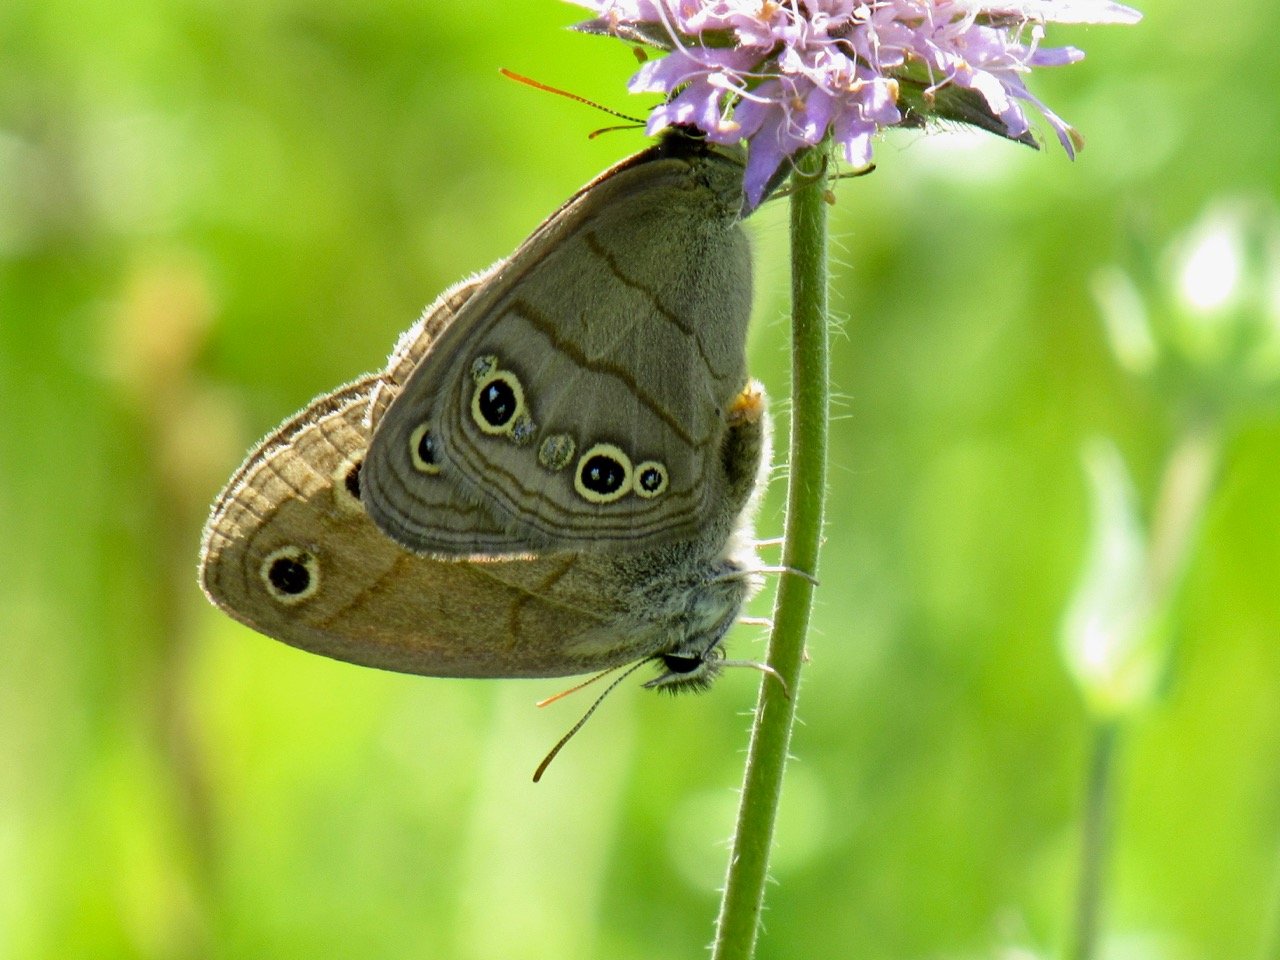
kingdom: Animalia
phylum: Arthropoda
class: Insecta
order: Lepidoptera
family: Nymphalidae
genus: Euptychia
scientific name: Euptychia cymela
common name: Little Wood Satyr
